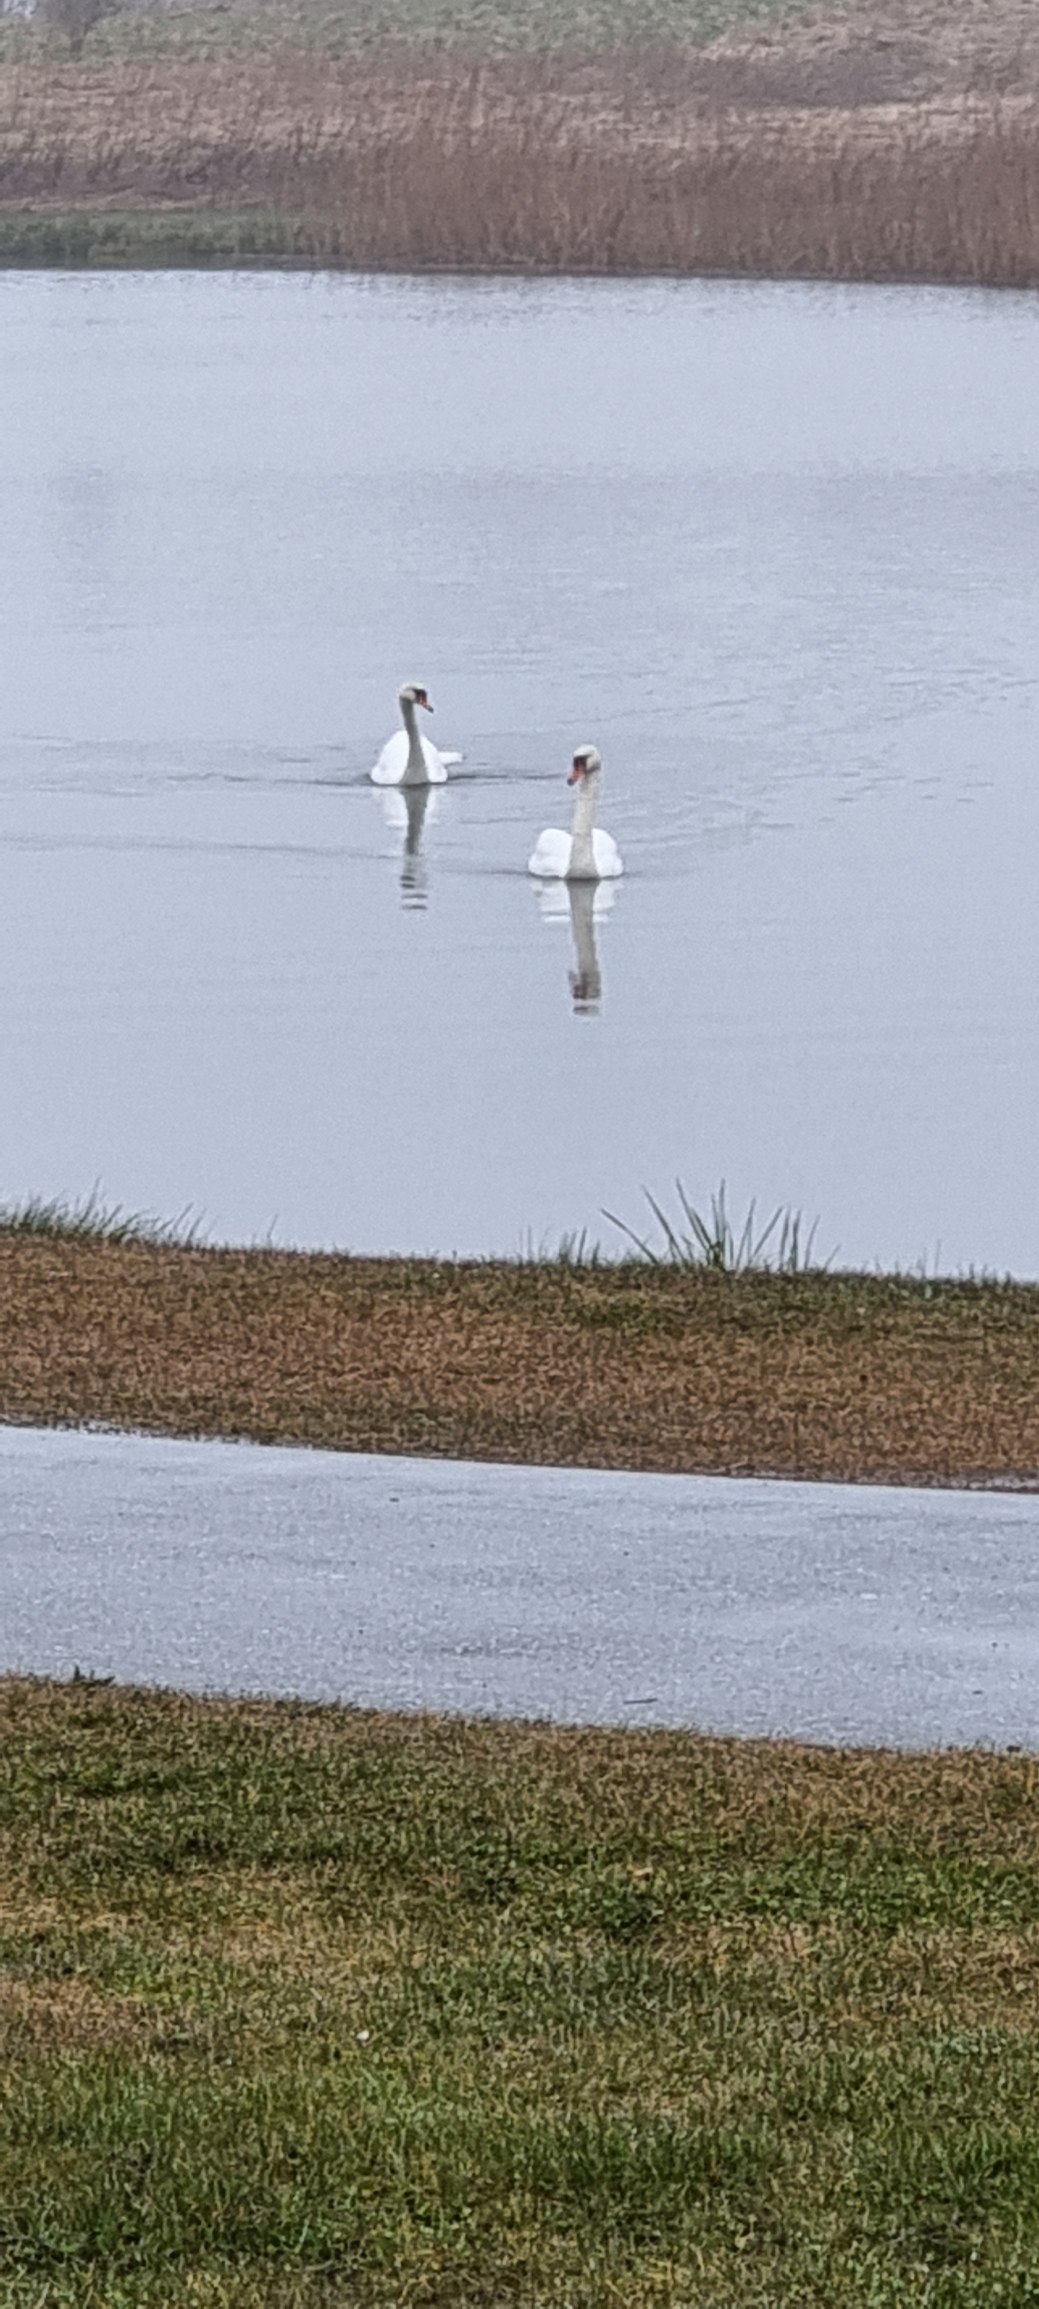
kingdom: Animalia
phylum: Chordata
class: Aves
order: Anseriformes
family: Anatidae
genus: Cygnus
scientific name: Cygnus olor
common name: Knopsvane
